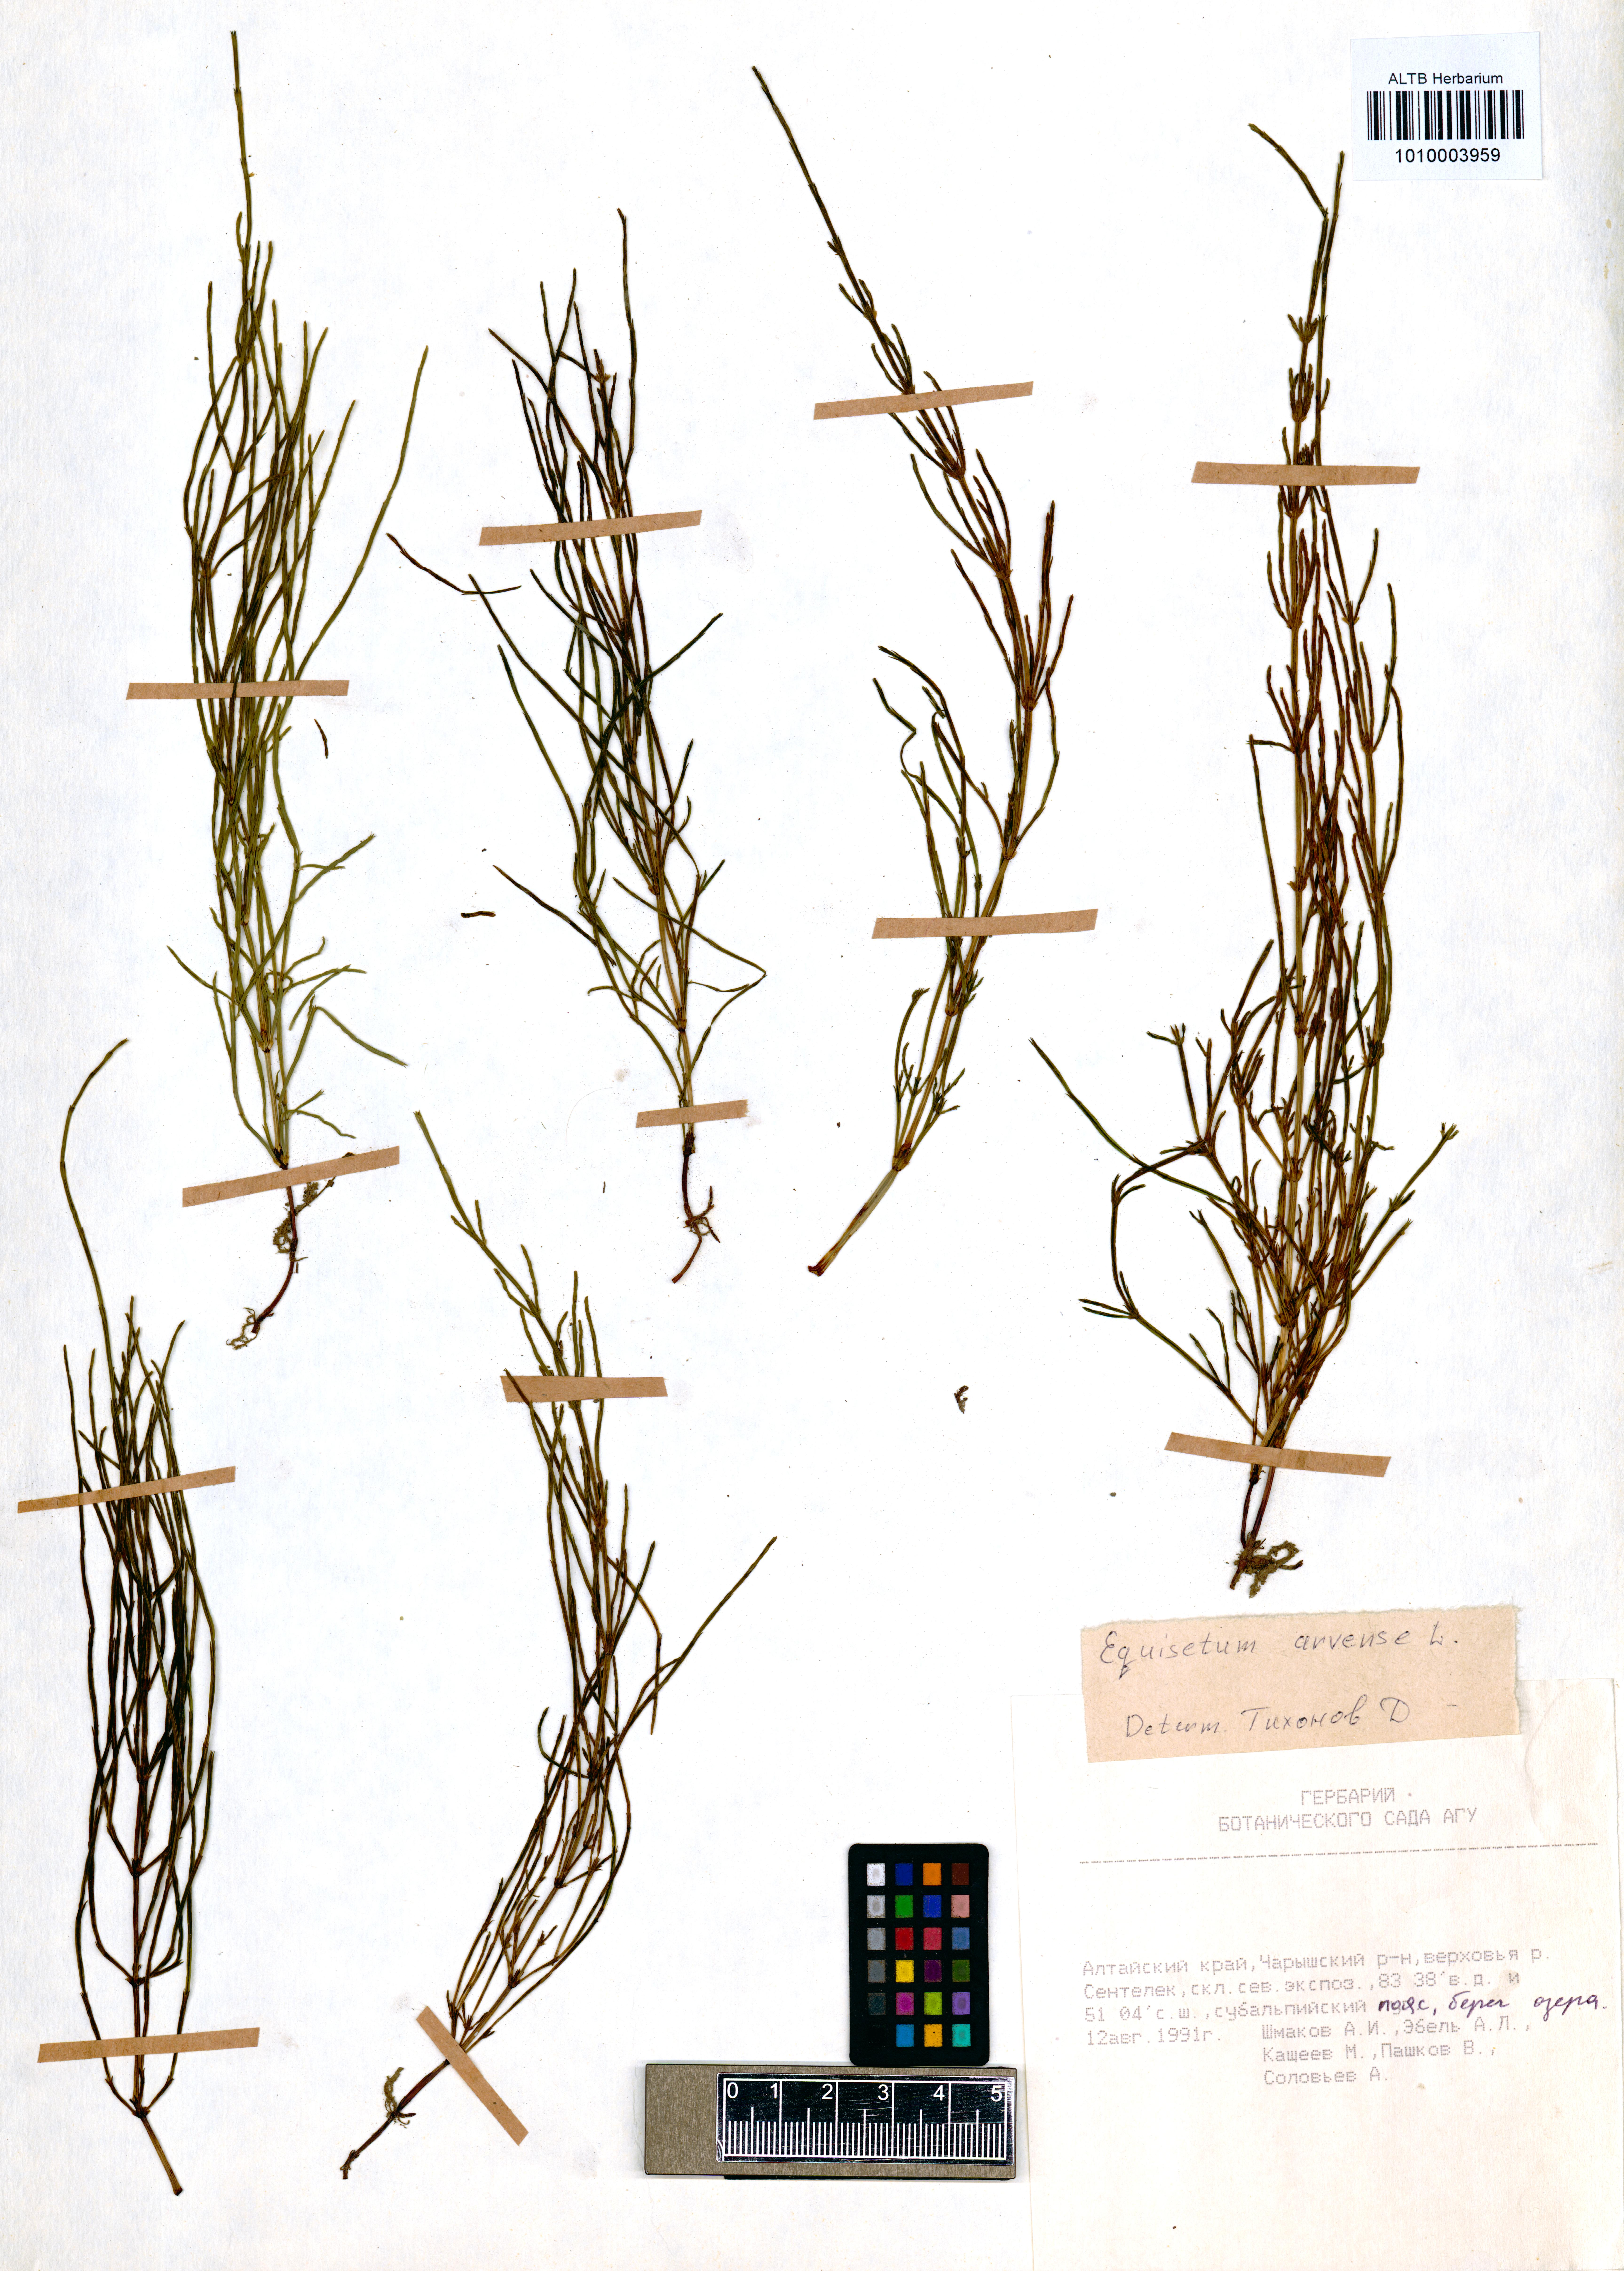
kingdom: Plantae
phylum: Tracheophyta
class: Polypodiopsida
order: Equisetales
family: Equisetaceae
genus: Equisetum
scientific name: Equisetum arvense
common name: Field horsetail
